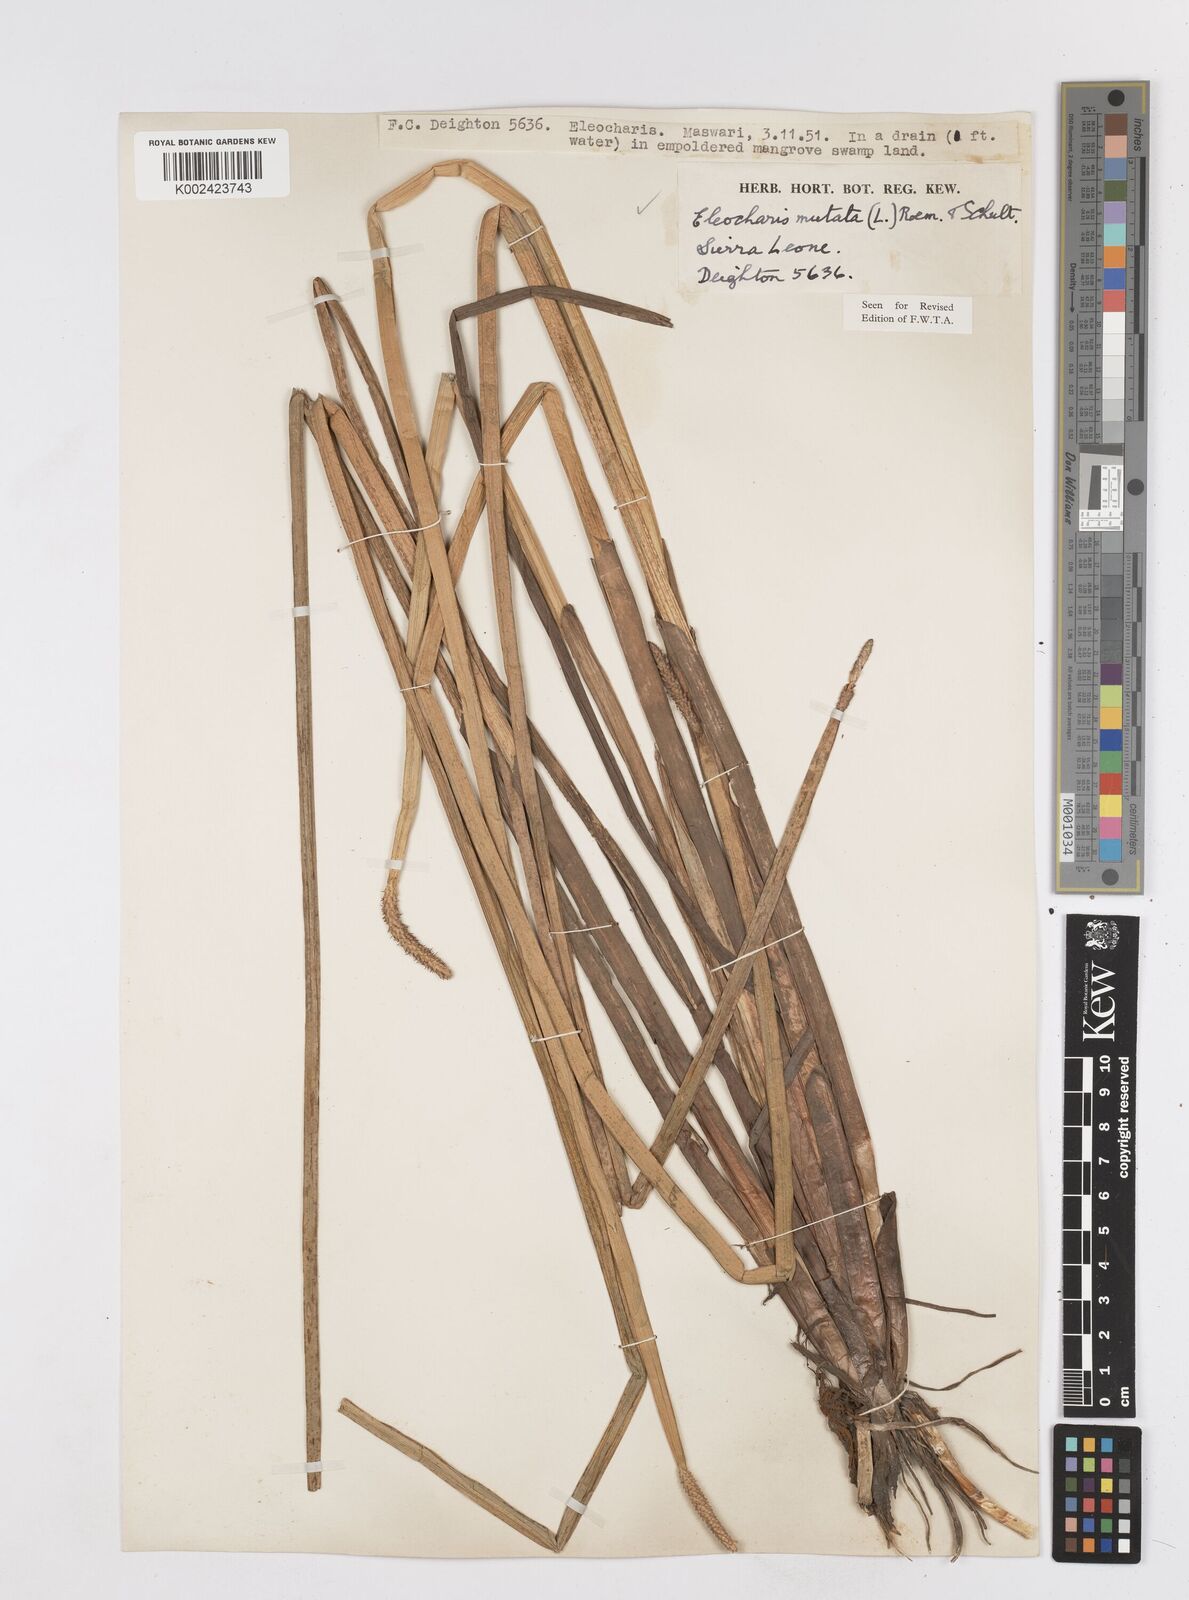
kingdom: Plantae
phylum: Tracheophyta
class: Liliopsida
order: Poales
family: Cyperaceae
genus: Eleocharis
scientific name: Eleocharis mutata
